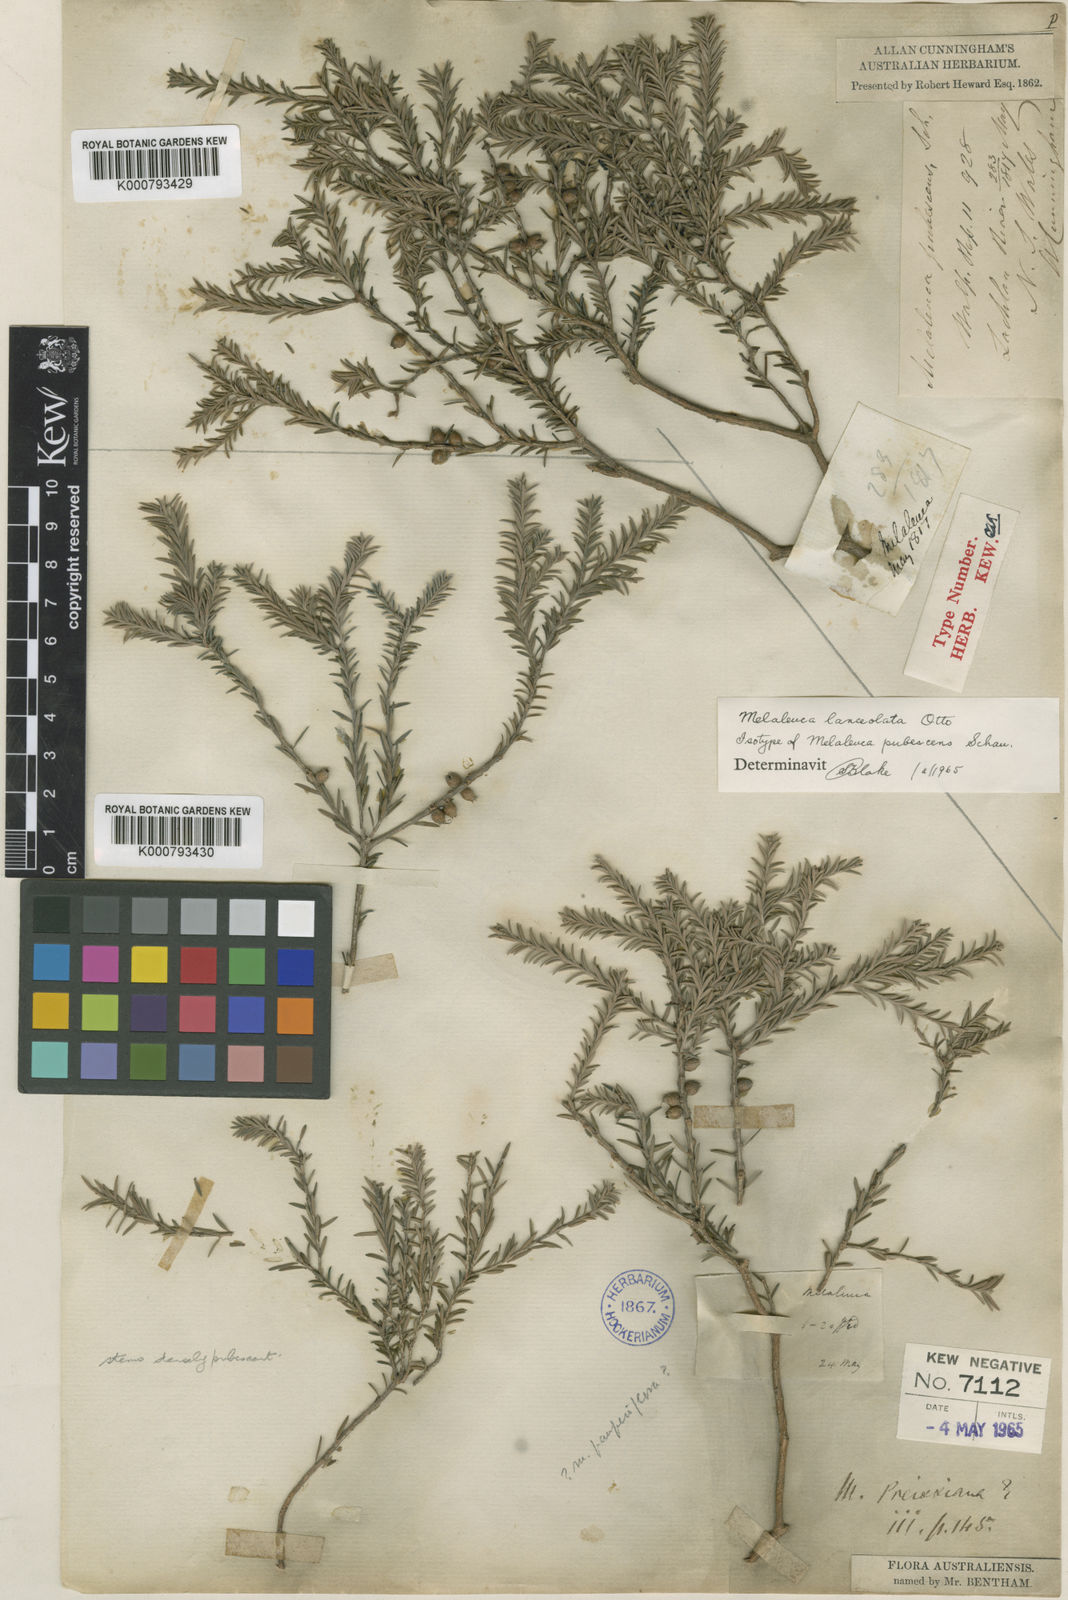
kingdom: Plantae
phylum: Tracheophyta
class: Magnoliopsida
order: Myrtales
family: Myrtaceae
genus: Melaleuca
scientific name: Melaleuca lanceolata
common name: Rottnest island teatree
